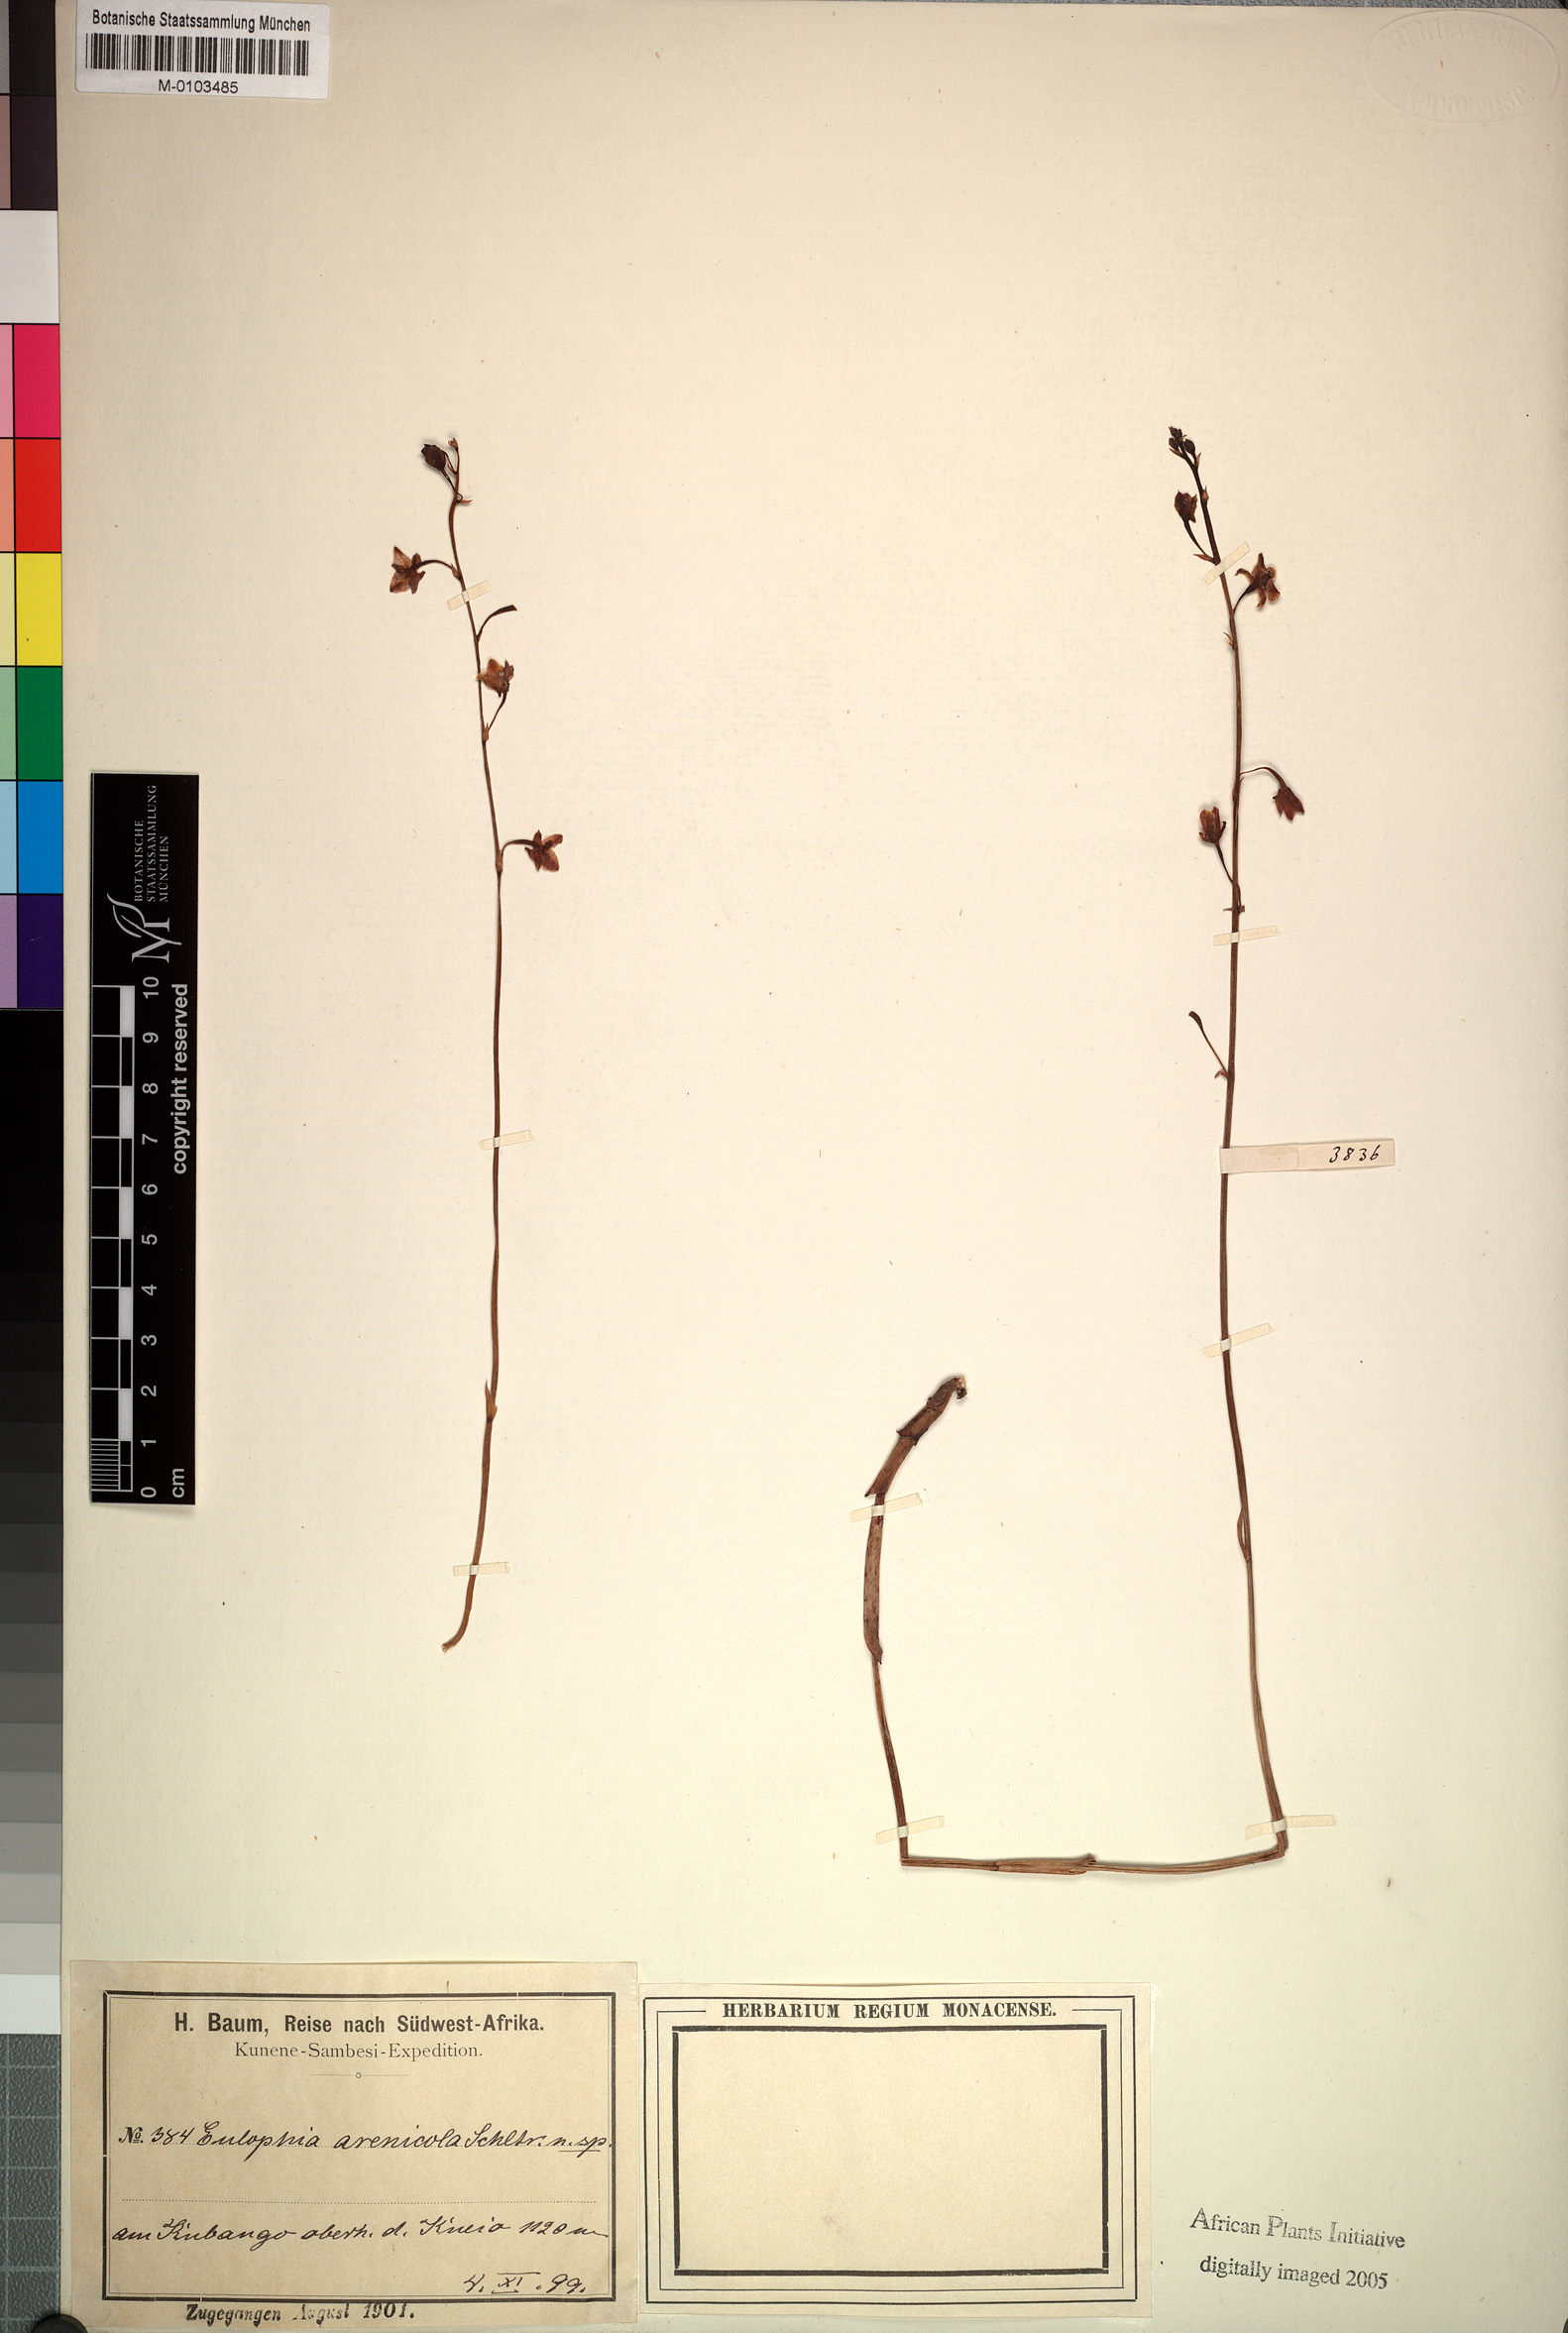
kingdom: Plantae
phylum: Tracheophyta
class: Liliopsida
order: Asparagales
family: Orchidaceae
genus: Eulophia
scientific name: Eulophia arenicola
